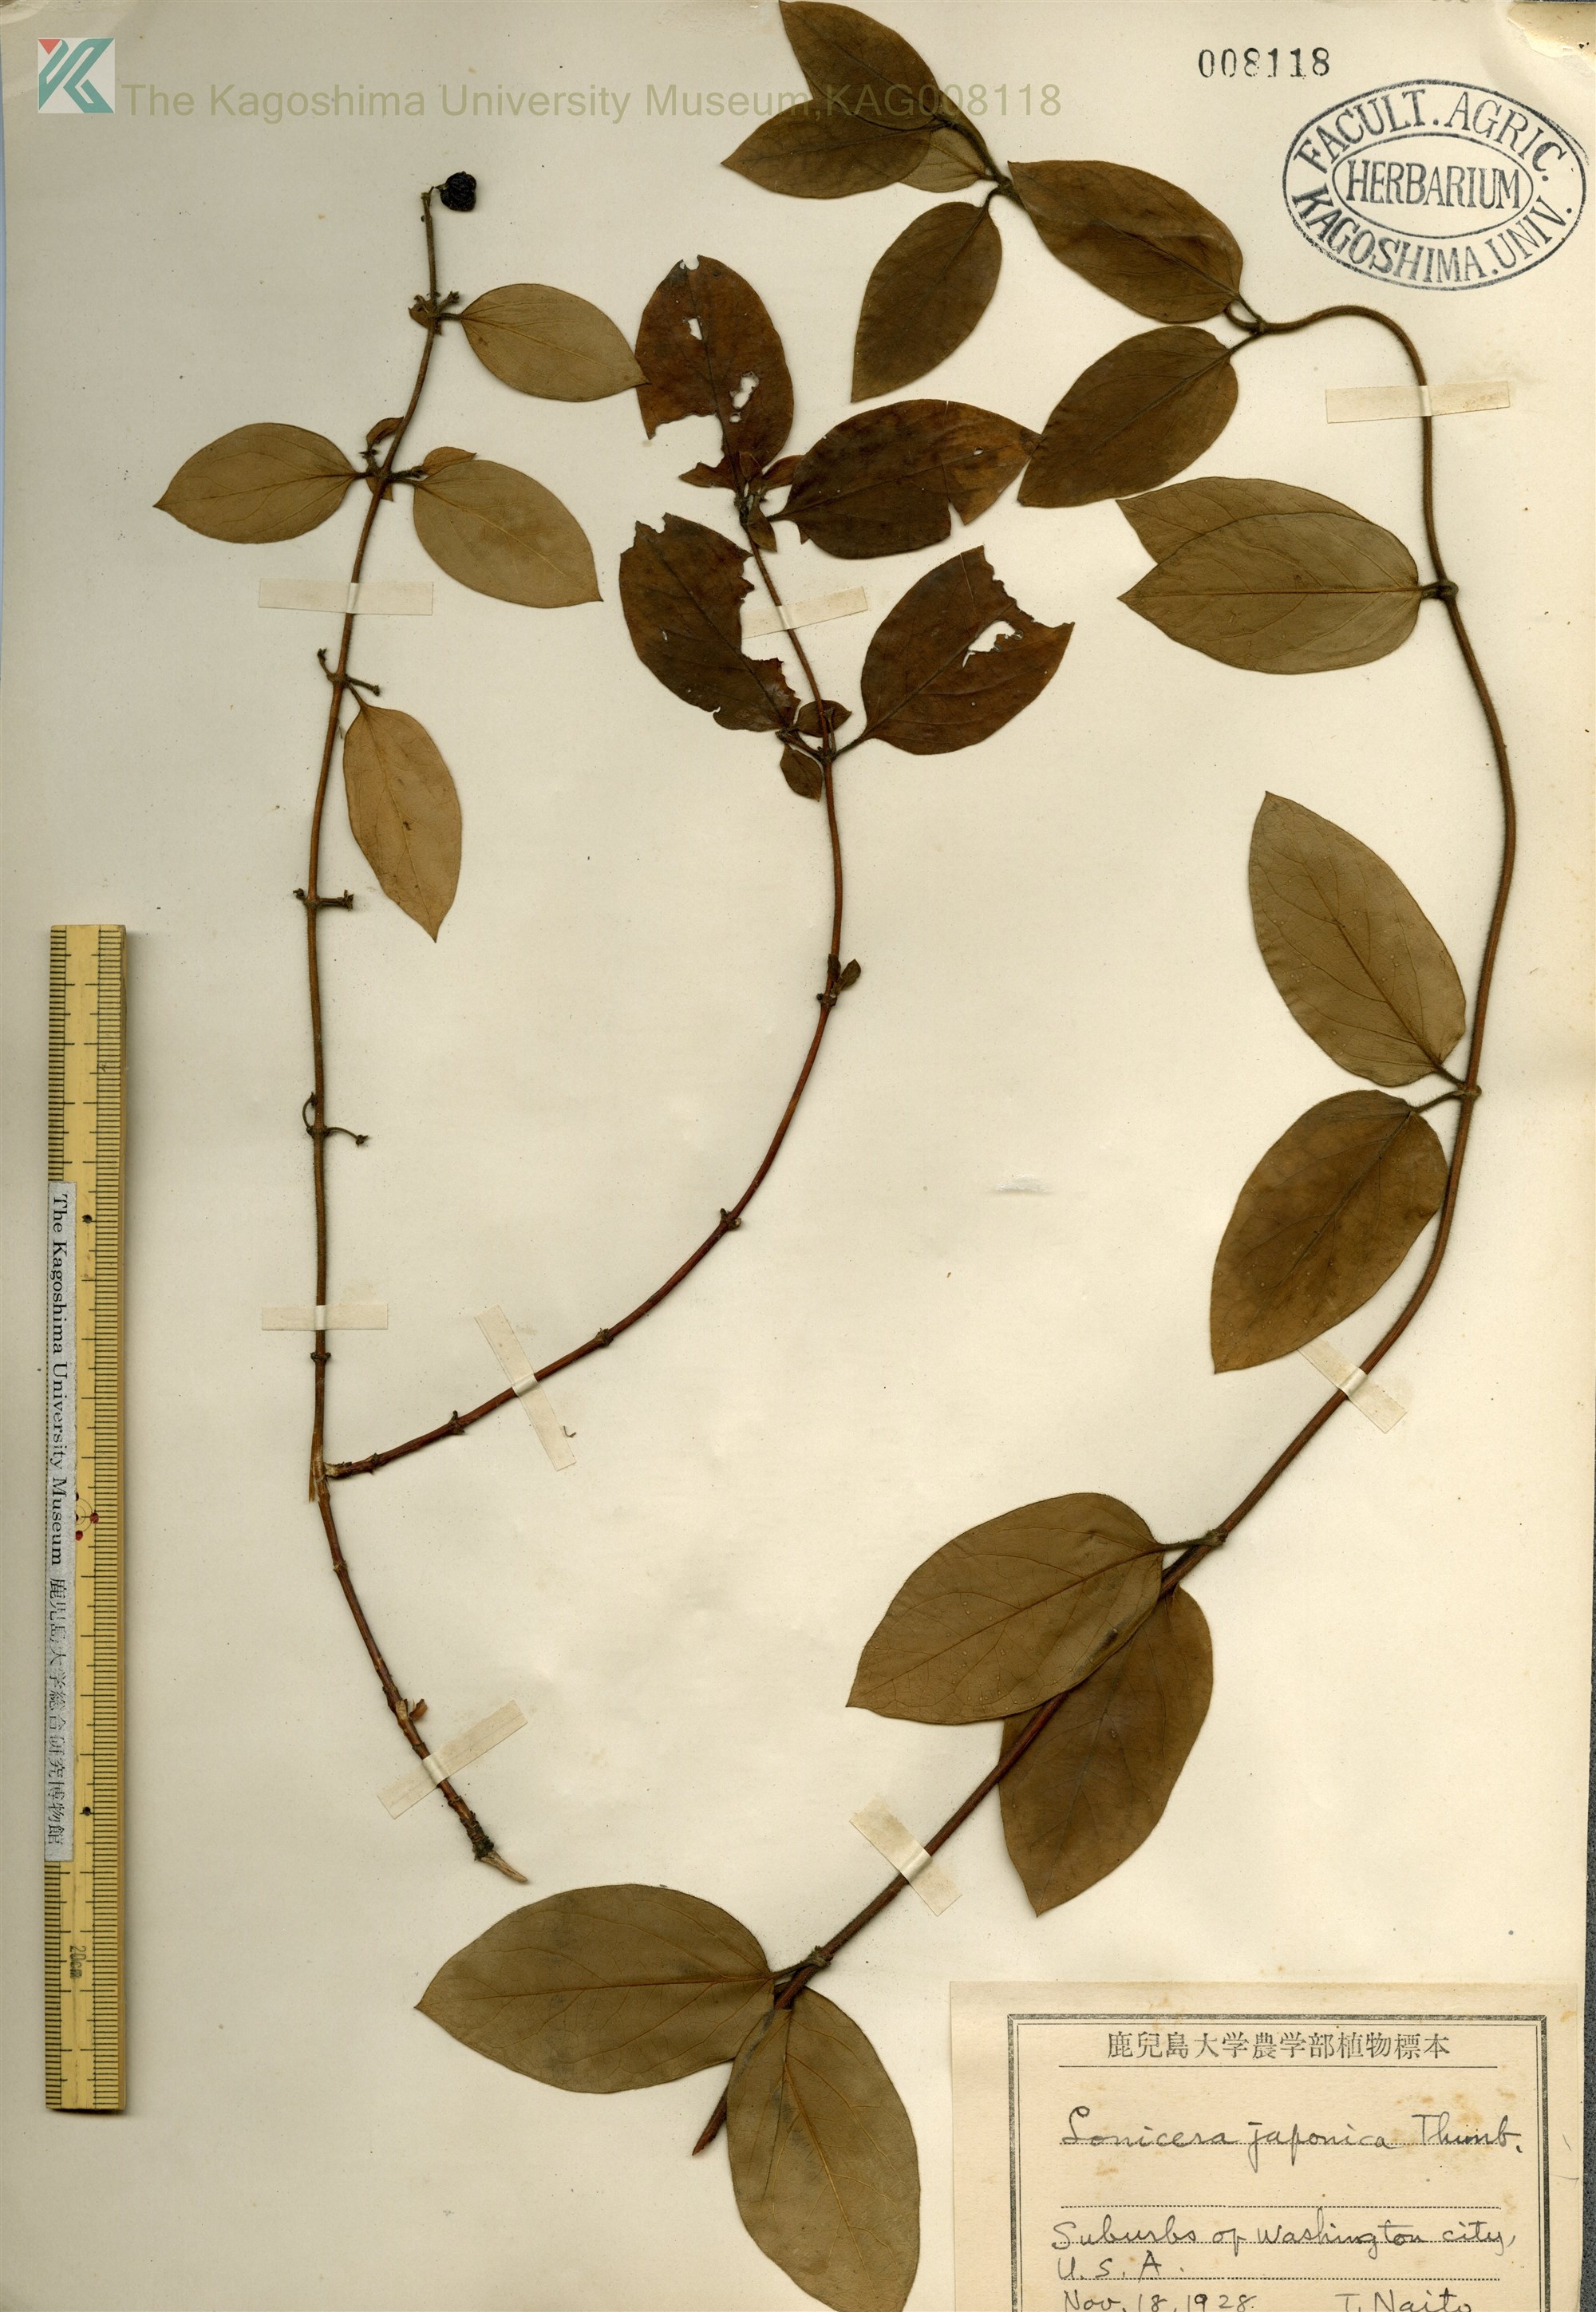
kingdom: Plantae
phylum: Tracheophyta
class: Magnoliopsida
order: Dipsacales
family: Caprifoliaceae
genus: Lonicera
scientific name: Lonicera japonica
